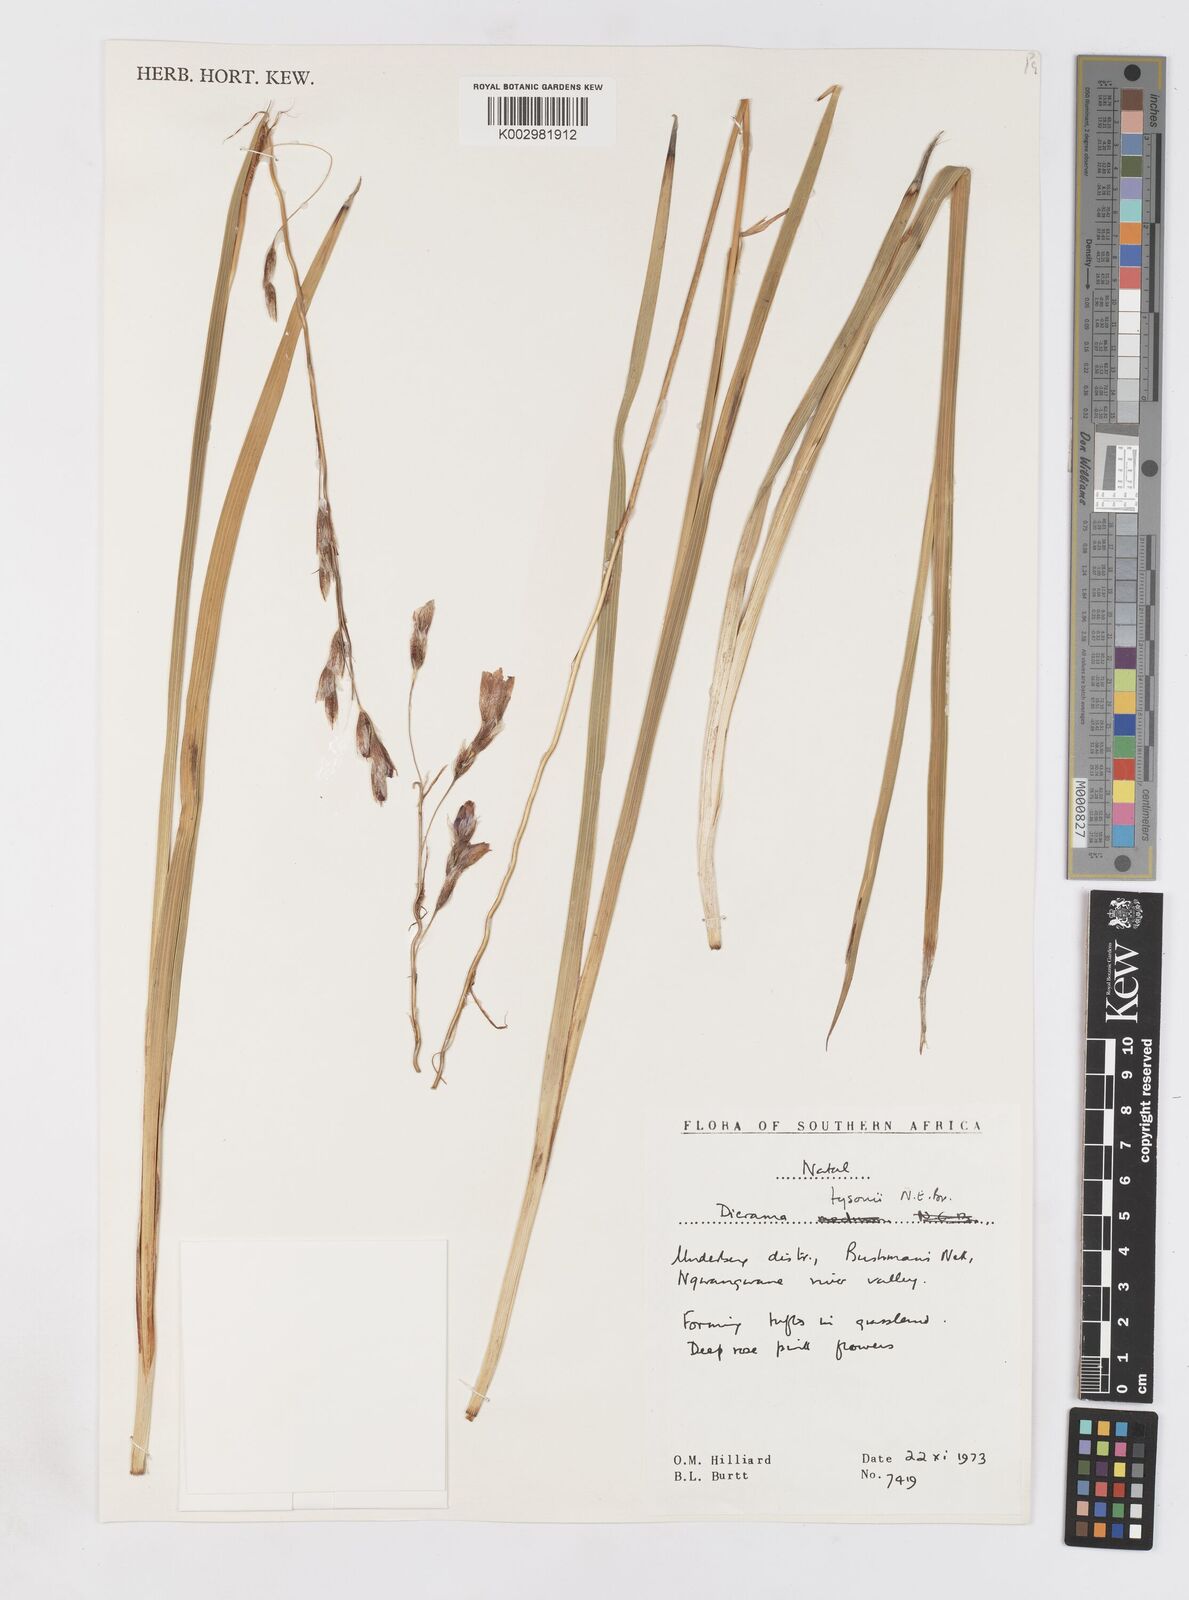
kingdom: Plantae
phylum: Tracheophyta
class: Liliopsida
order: Asparagales
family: Iridaceae
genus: Dierama
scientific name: Dierama tysonii
